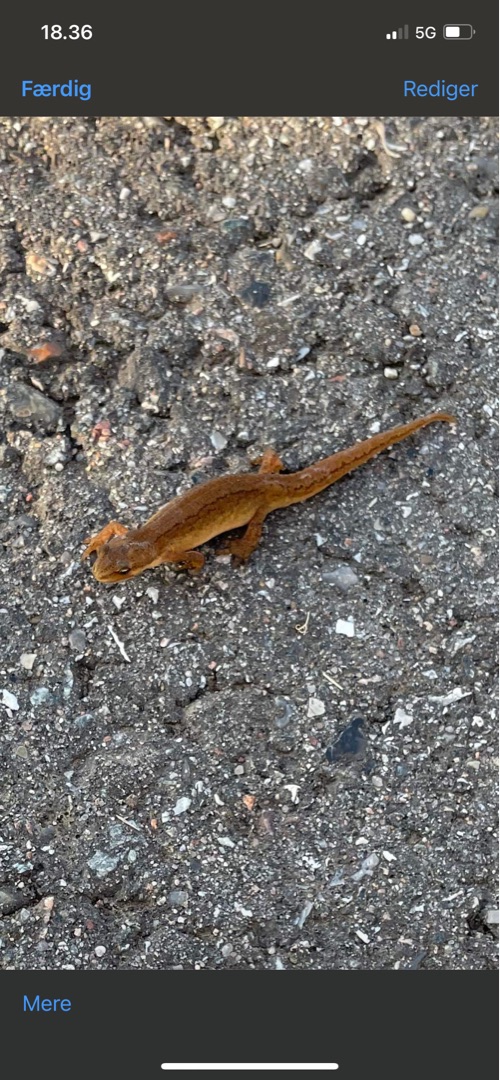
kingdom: Animalia
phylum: Chordata
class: Amphibia
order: Caudata
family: Salamandridae
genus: Lissotriton
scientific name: Lissotriton vulgaris
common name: Lille vandsalamander
